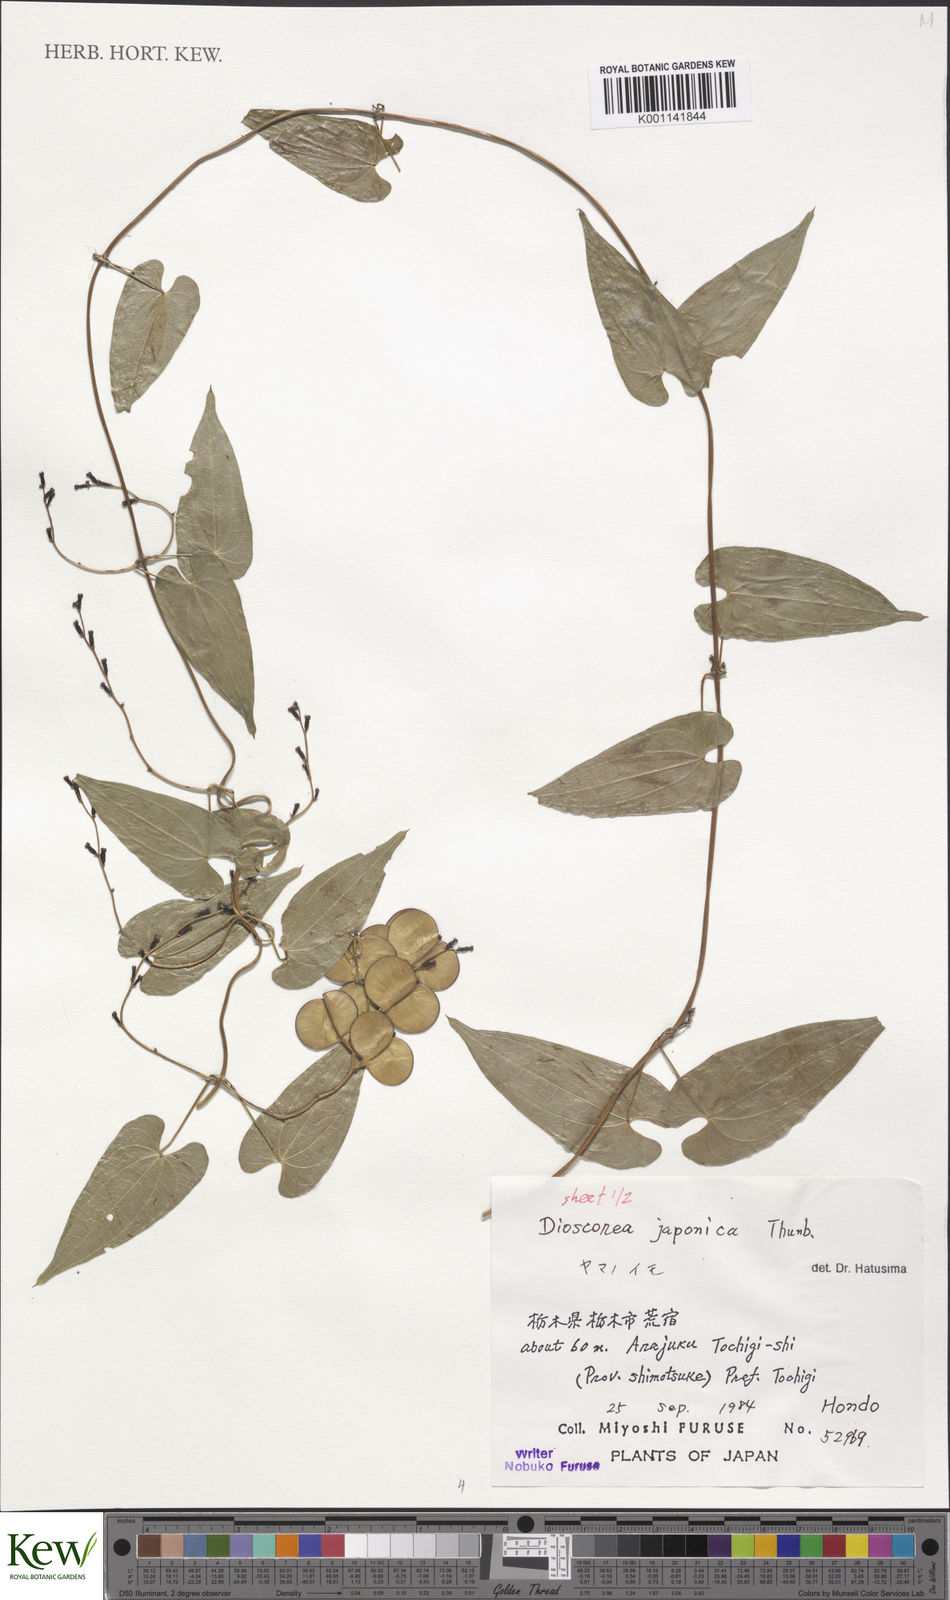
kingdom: Plantae
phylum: Tracheophyta
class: Liliopsida
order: Dioscoreales
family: Dioscoreaceae
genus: Dioscorea
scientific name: Dioscorea japonica
